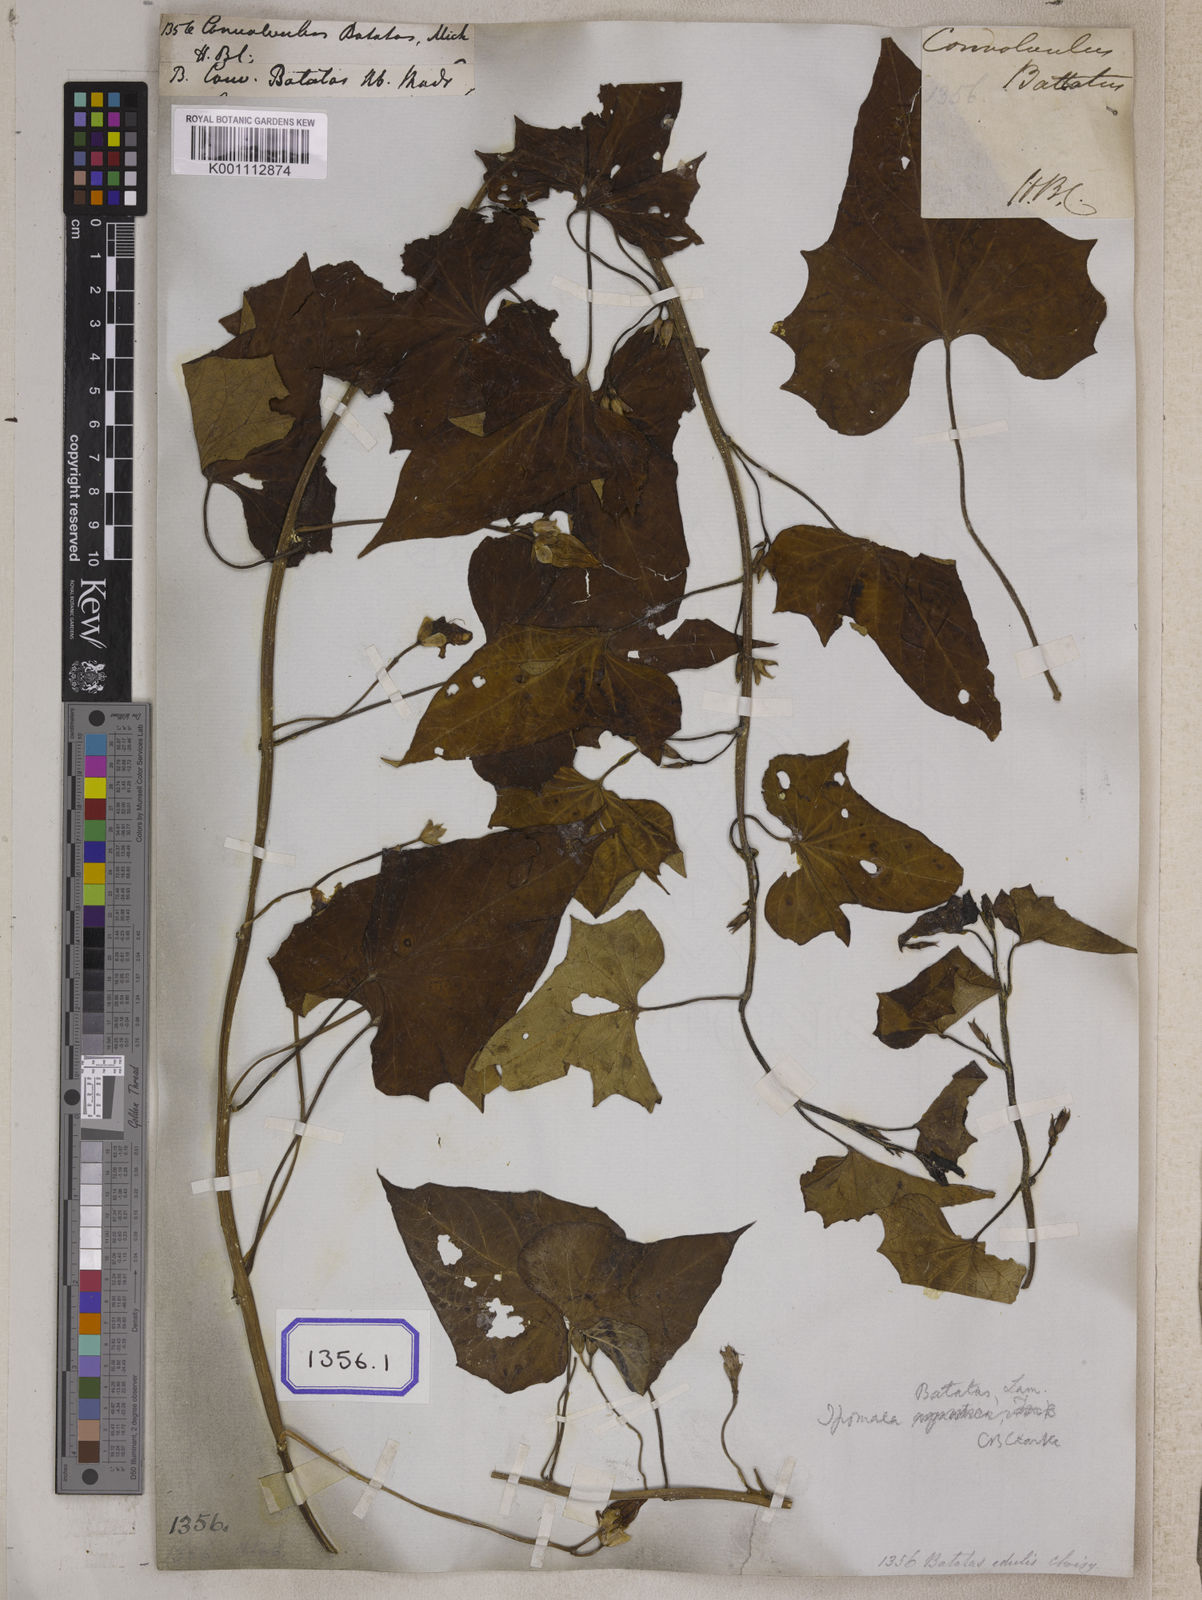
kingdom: Plantae
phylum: Tracheophyta
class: Magnoliopsida
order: Solanales
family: Convolvulaceae
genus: Ipomoea
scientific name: Ipomoea batatas
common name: Sweet-potato
